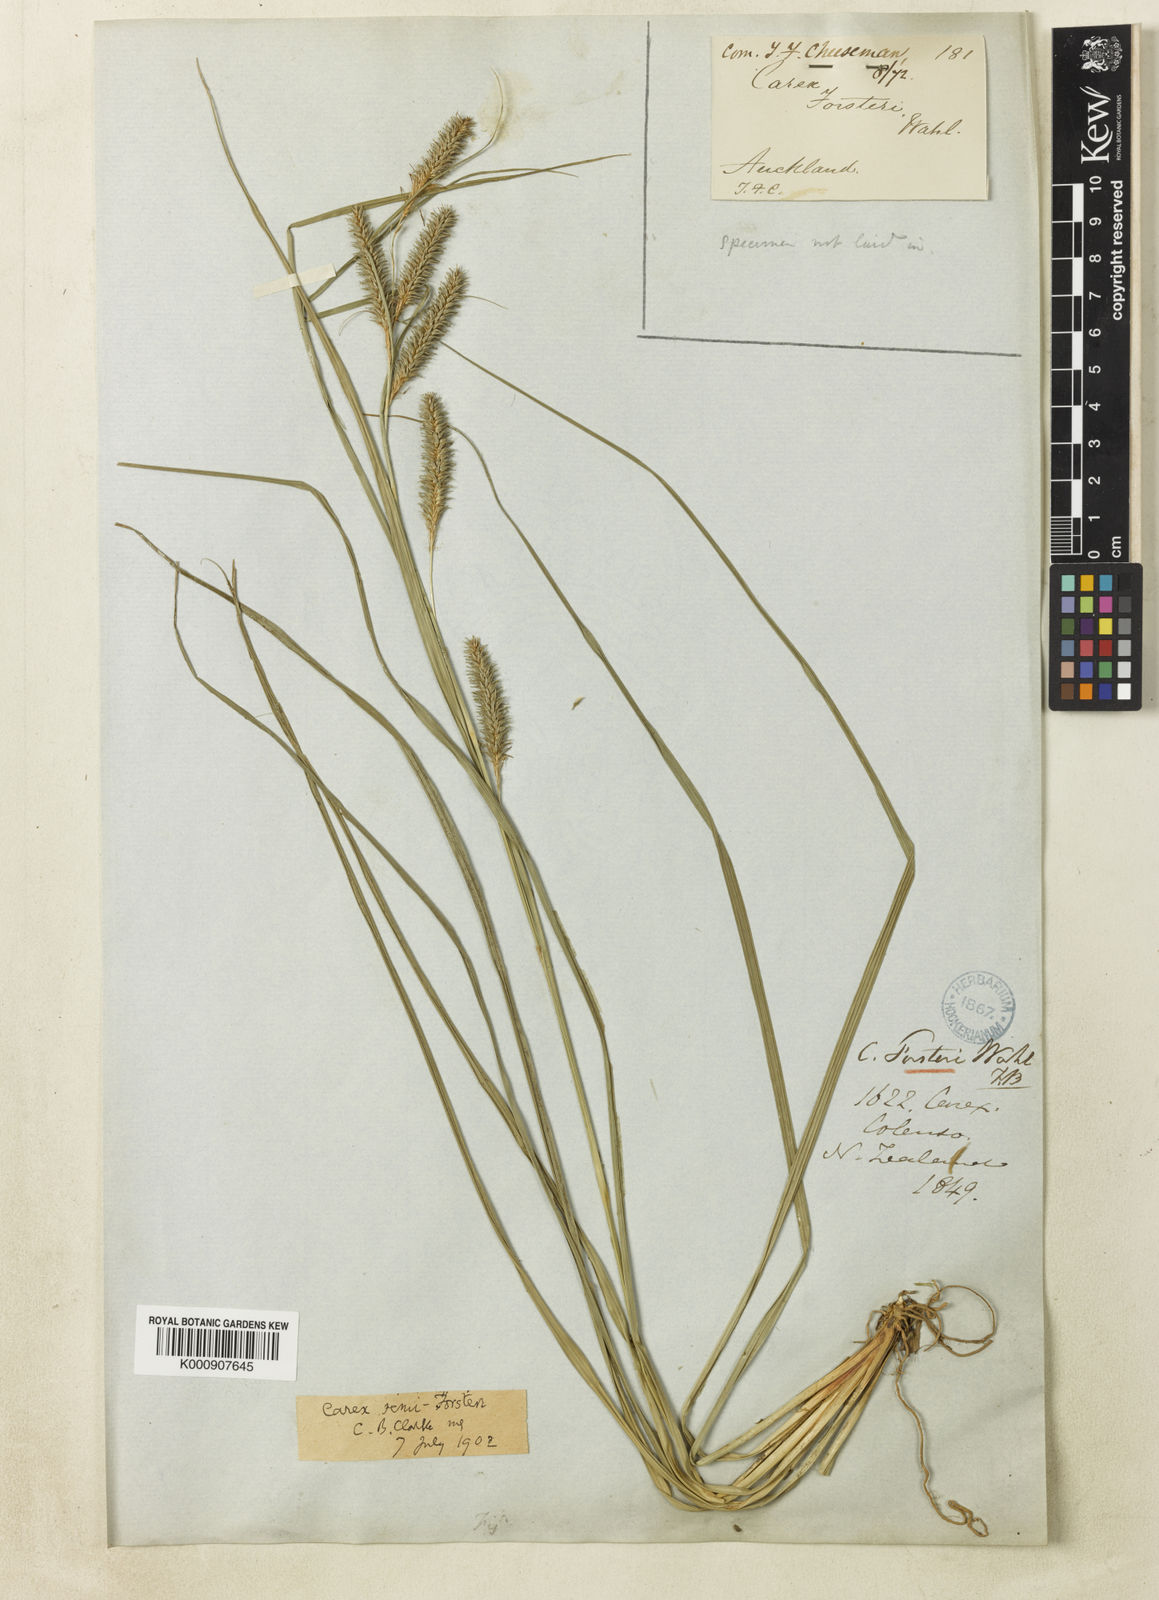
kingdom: Plantae
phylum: Tracheophyta
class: Liliopsida
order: Poales
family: Cyperaceae
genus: Carex
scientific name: Carex forsteri
